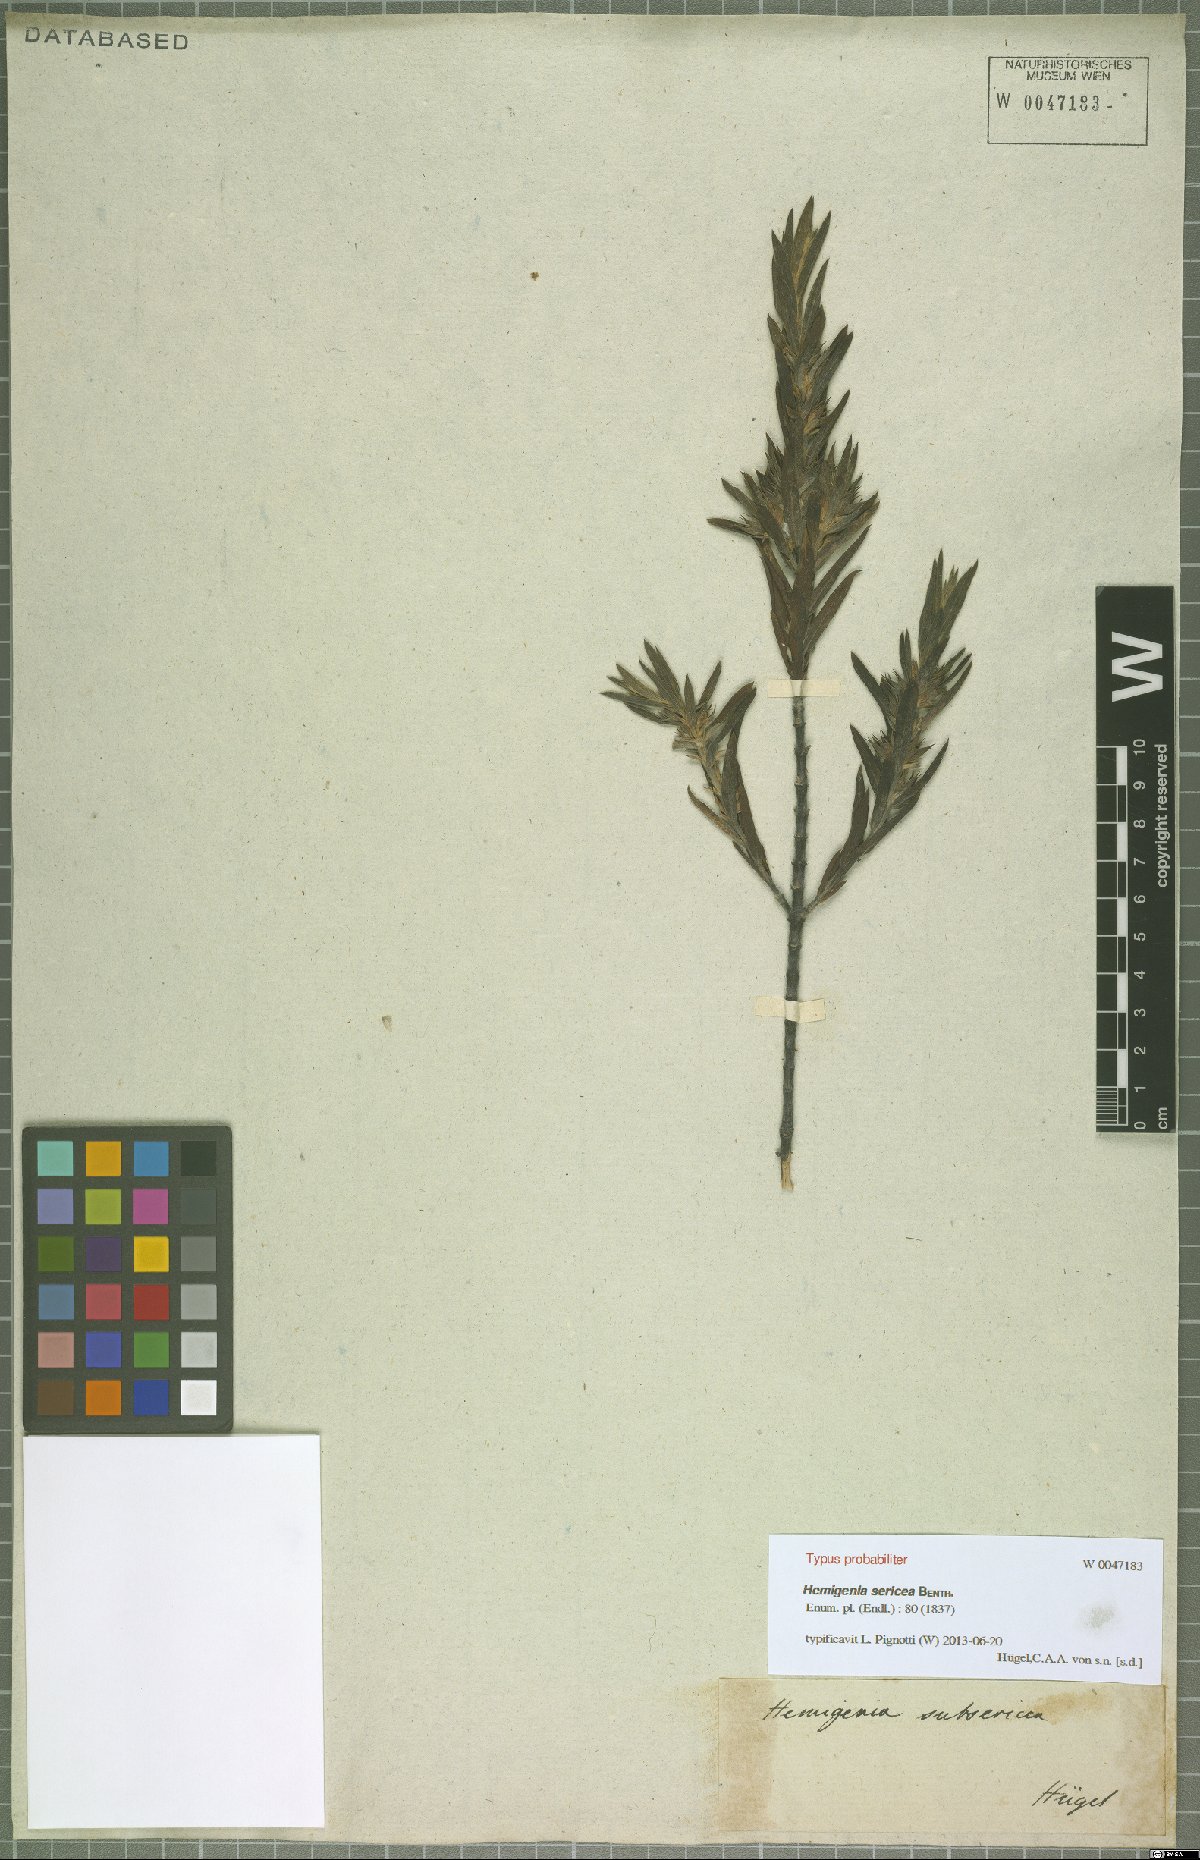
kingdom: Plantae
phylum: Tracheophyta
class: Magnoliopsida
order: Lamiales
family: Lamiaceae
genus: Hemigenia
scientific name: Hemigenia sericea
